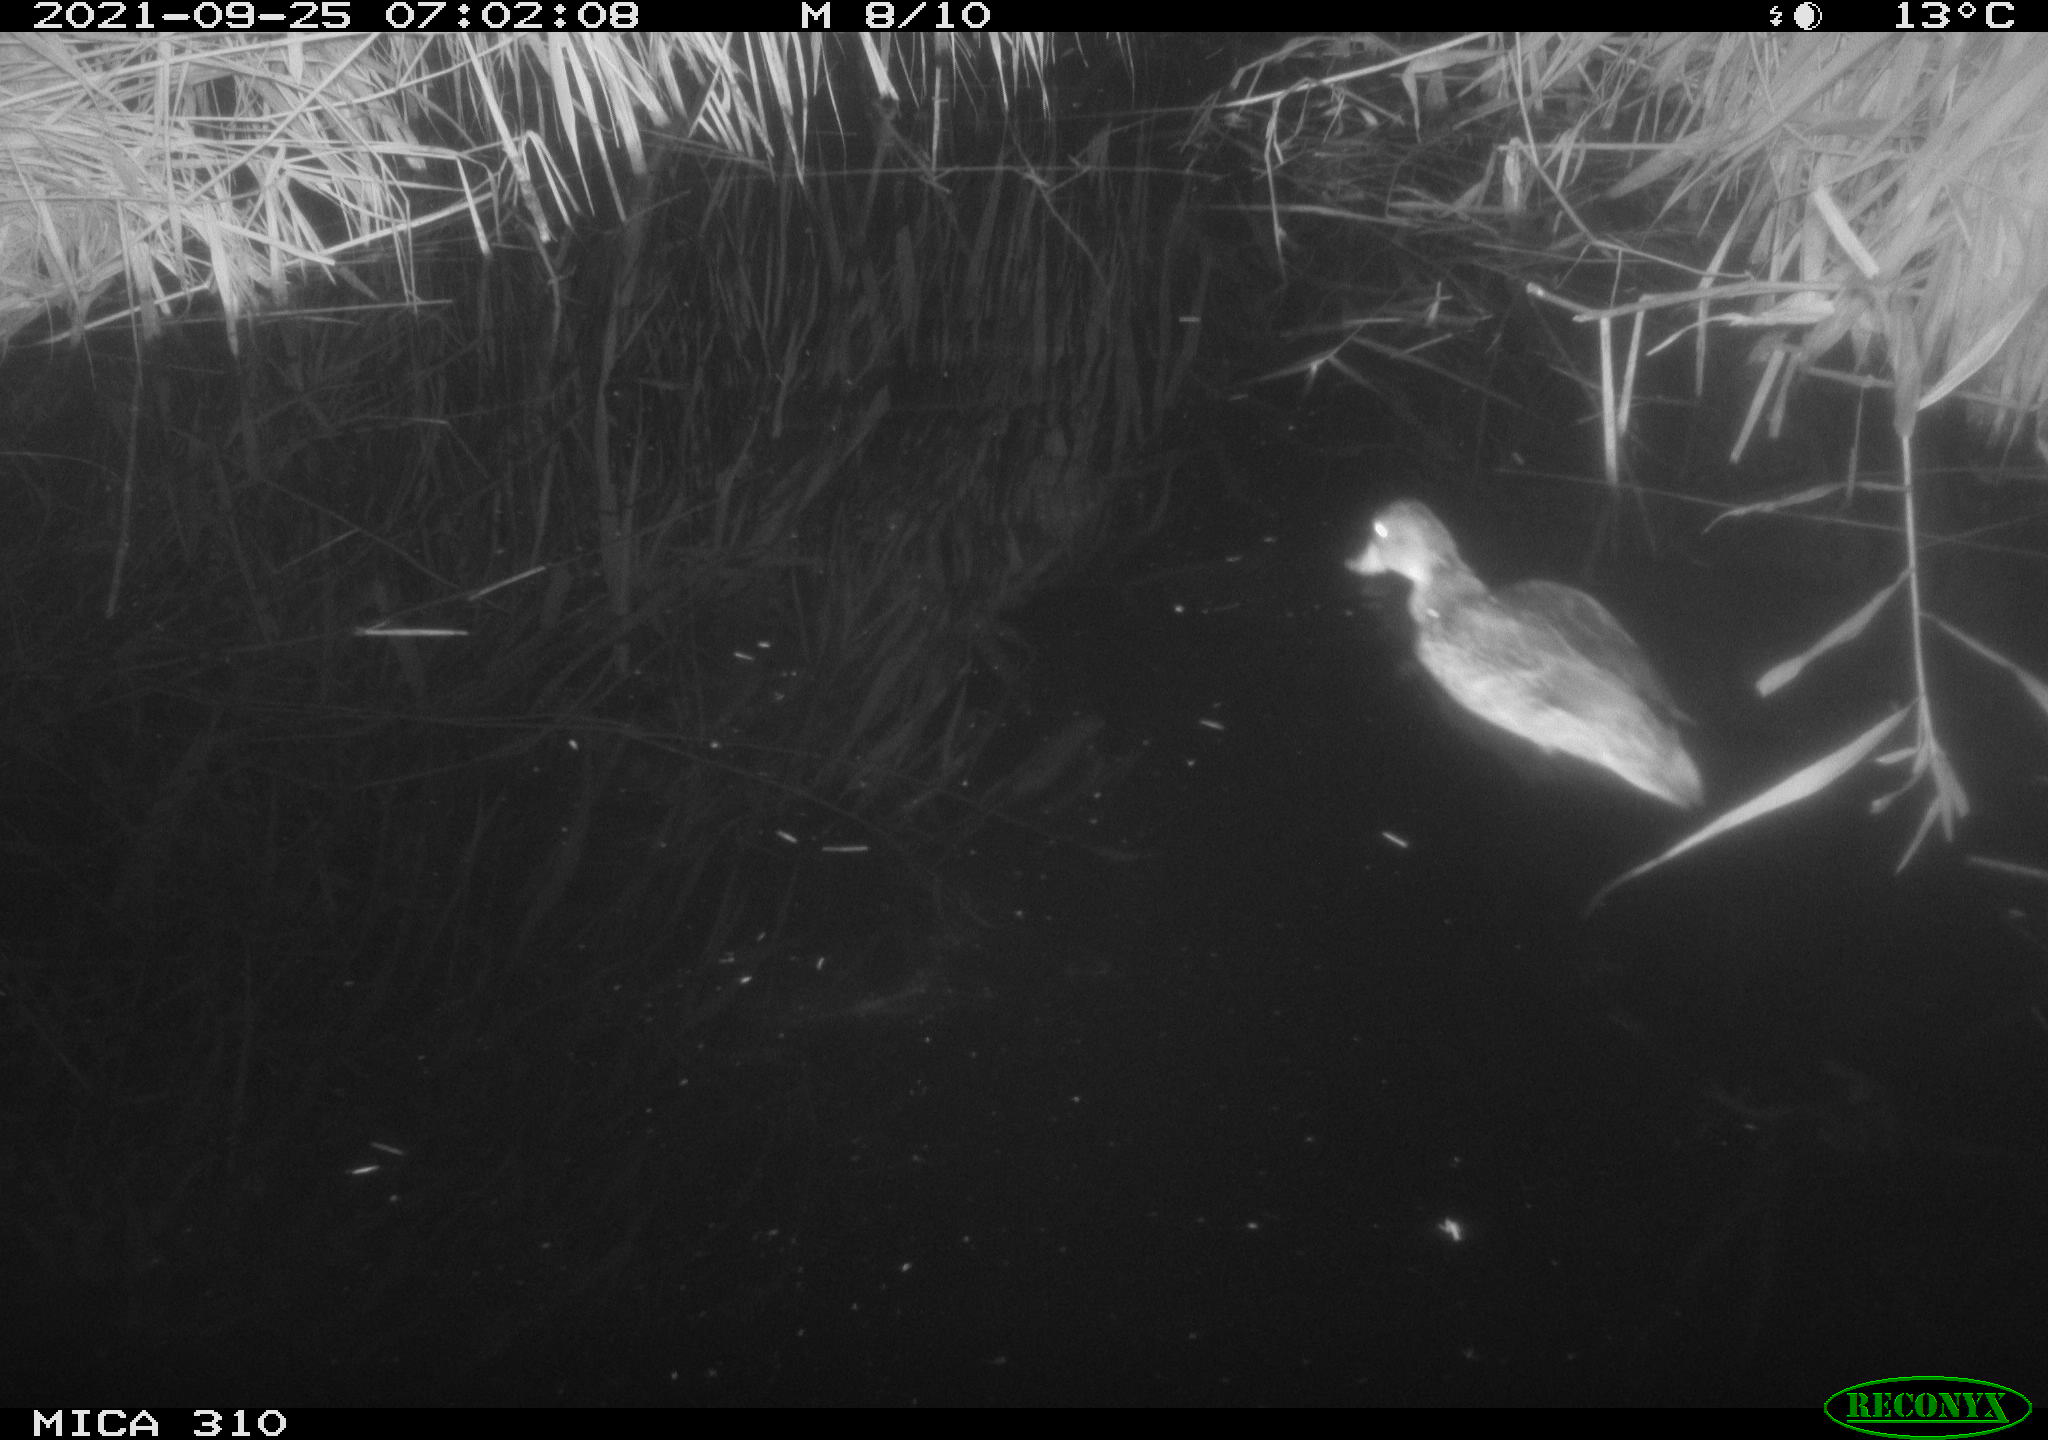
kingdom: Animalia
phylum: Chordata
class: Aves
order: Anseriformes
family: Anatidae
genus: Anas
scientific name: Anas platyrhynchos
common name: Mallard
